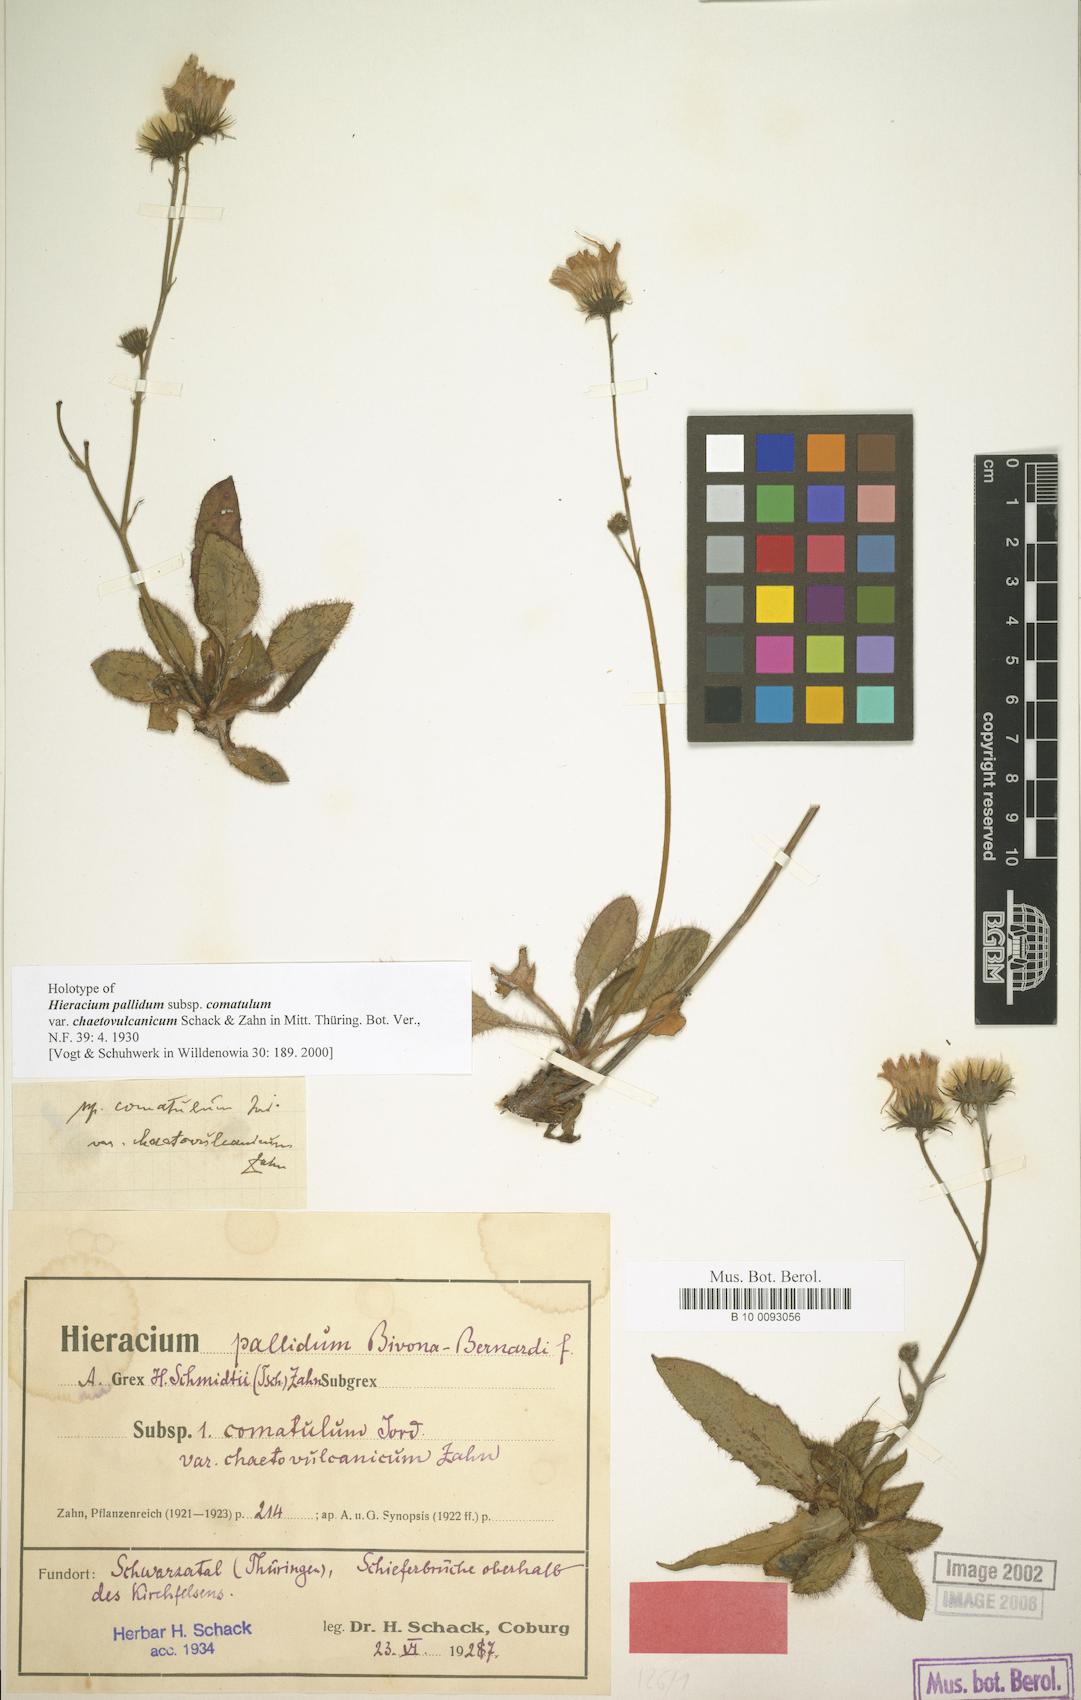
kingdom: Plantae
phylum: Tracheophyta
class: Magnoliopsida
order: Asterales
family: Asteraceae
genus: Hieracium
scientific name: Hieracium pallidum
